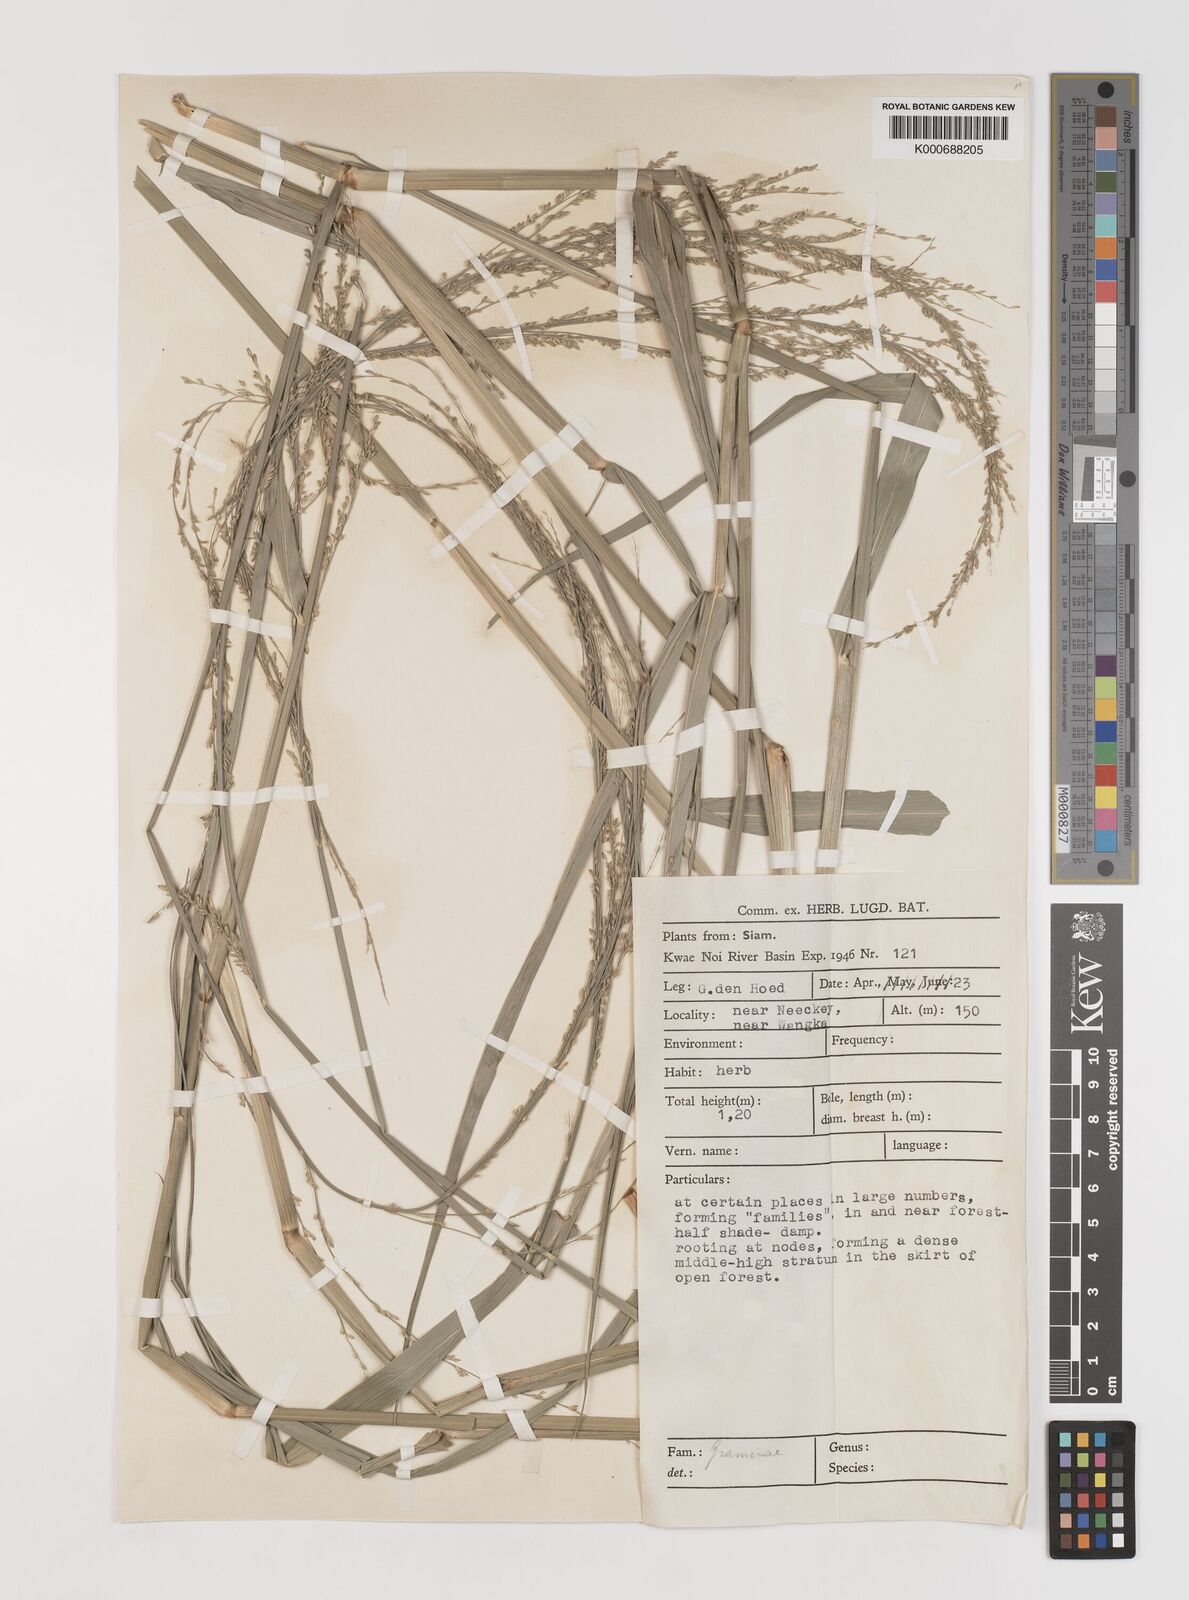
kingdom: Plantae
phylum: Tracheophyta
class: Liliopsida
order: Poales
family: Poaceae
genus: Setaria
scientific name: Setaria palmifolia
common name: Broadleaved bristlegrass
